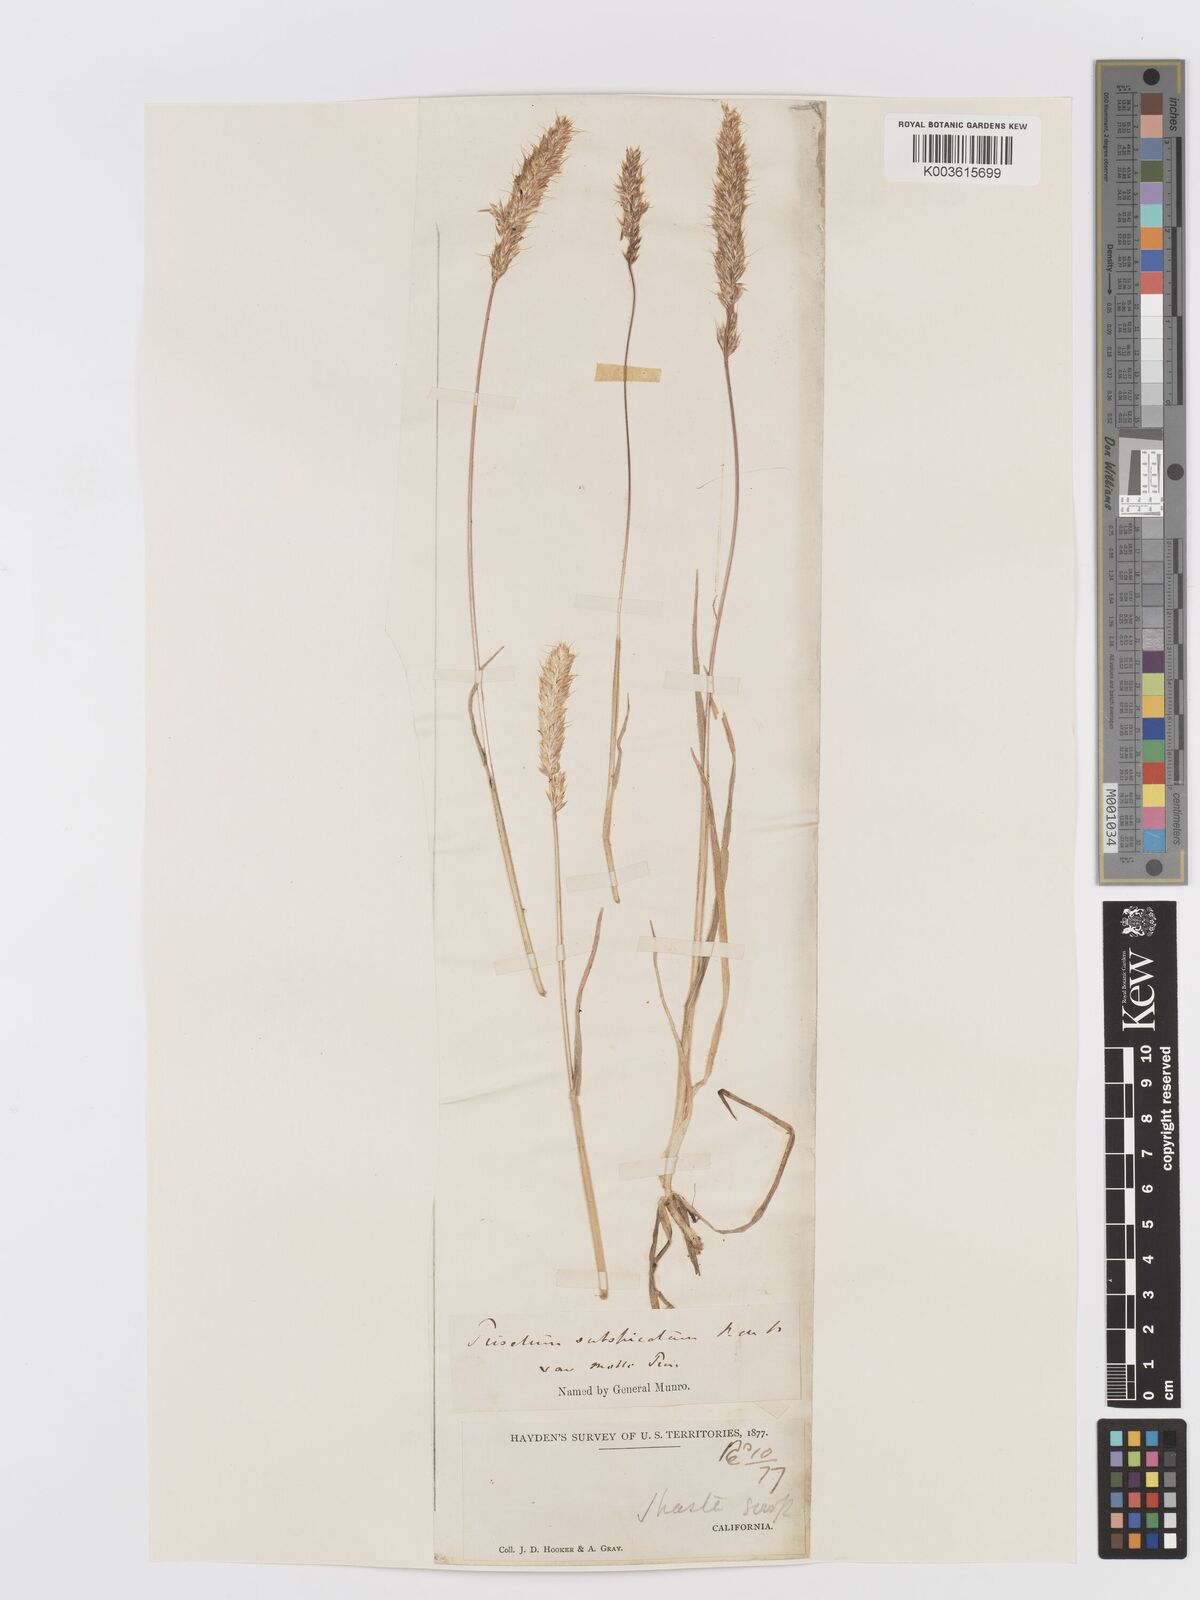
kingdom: Plantae
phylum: Tracheophyta
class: Liliopsida
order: Poales
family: Poaceae
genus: Koeleria
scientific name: Koeleria spicata
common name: Mountain trisetum
